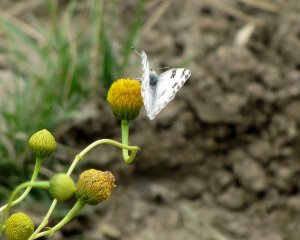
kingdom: Animalia
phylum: Arthropoda
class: Insecta
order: Lepidoptera
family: Pieridae
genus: Pontia
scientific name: Pontia protodice
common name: Checkered White
